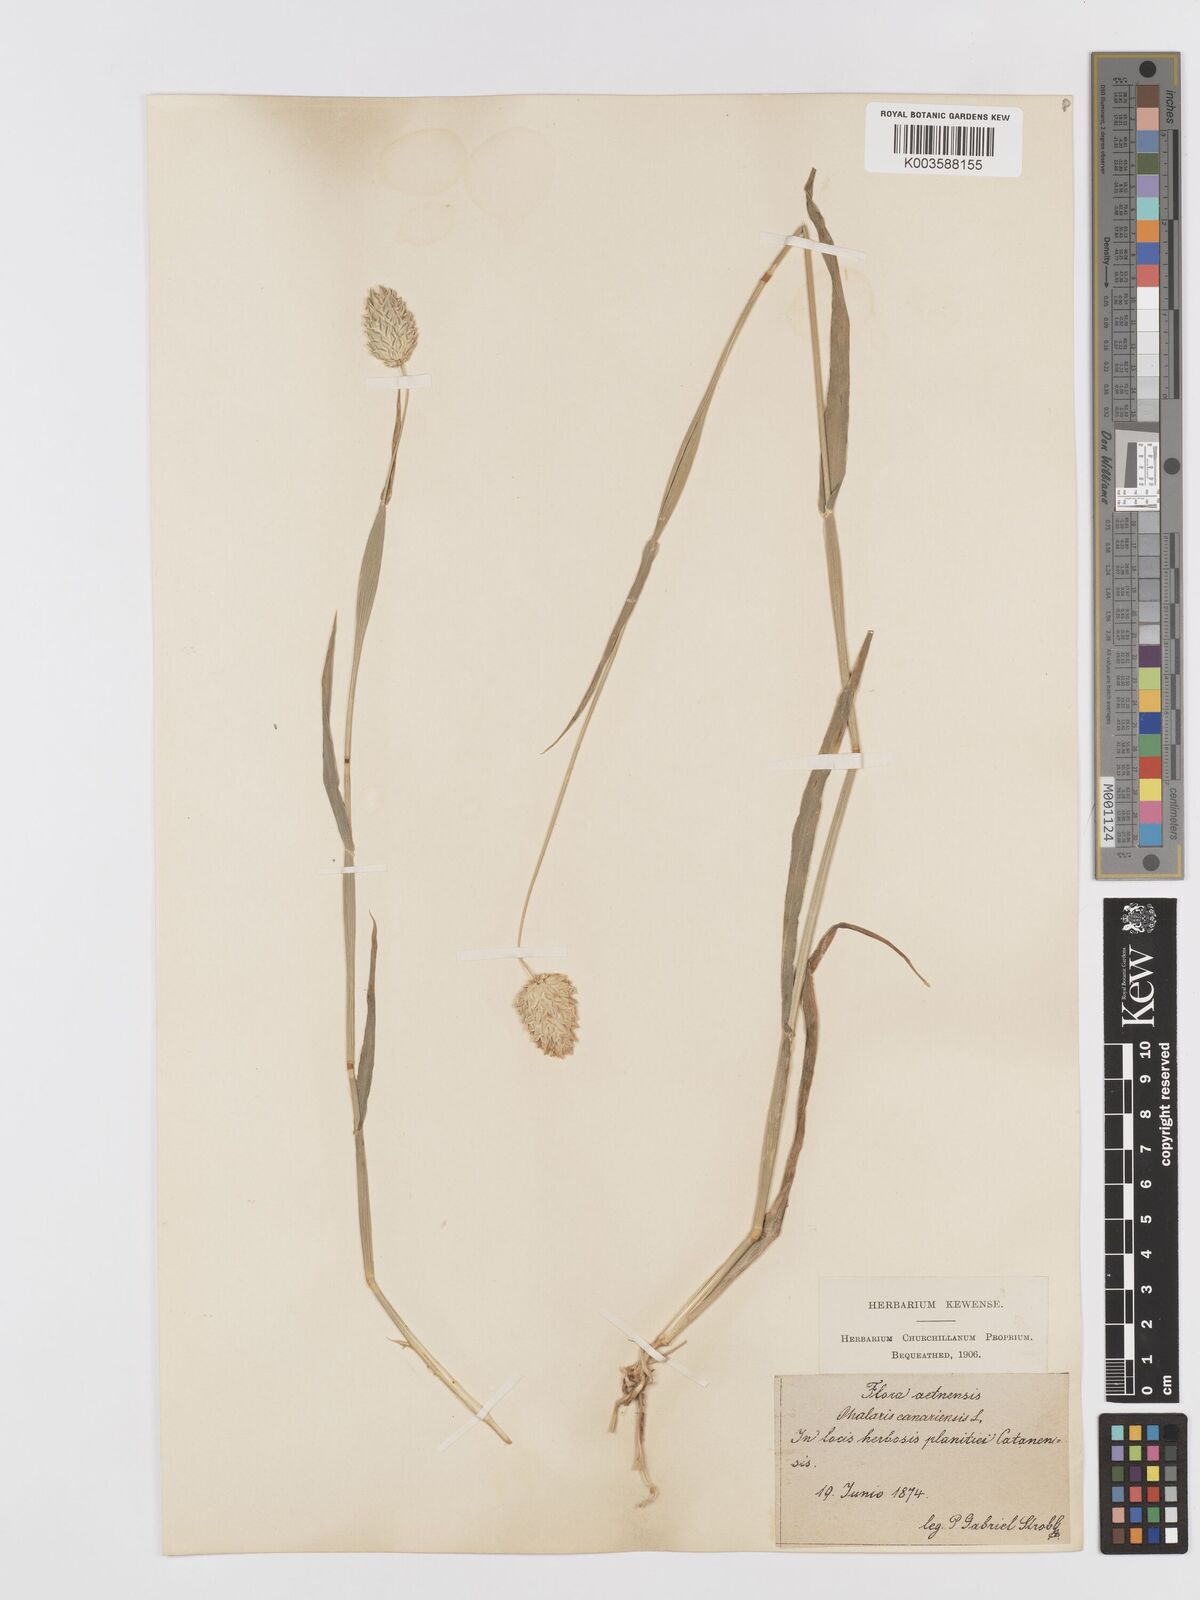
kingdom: Plantae
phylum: Tracheophyta
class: Liliopsida
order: Poales
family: Poaceae
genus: Phalaris
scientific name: Phalaris canariensis
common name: Annual canarygrass
